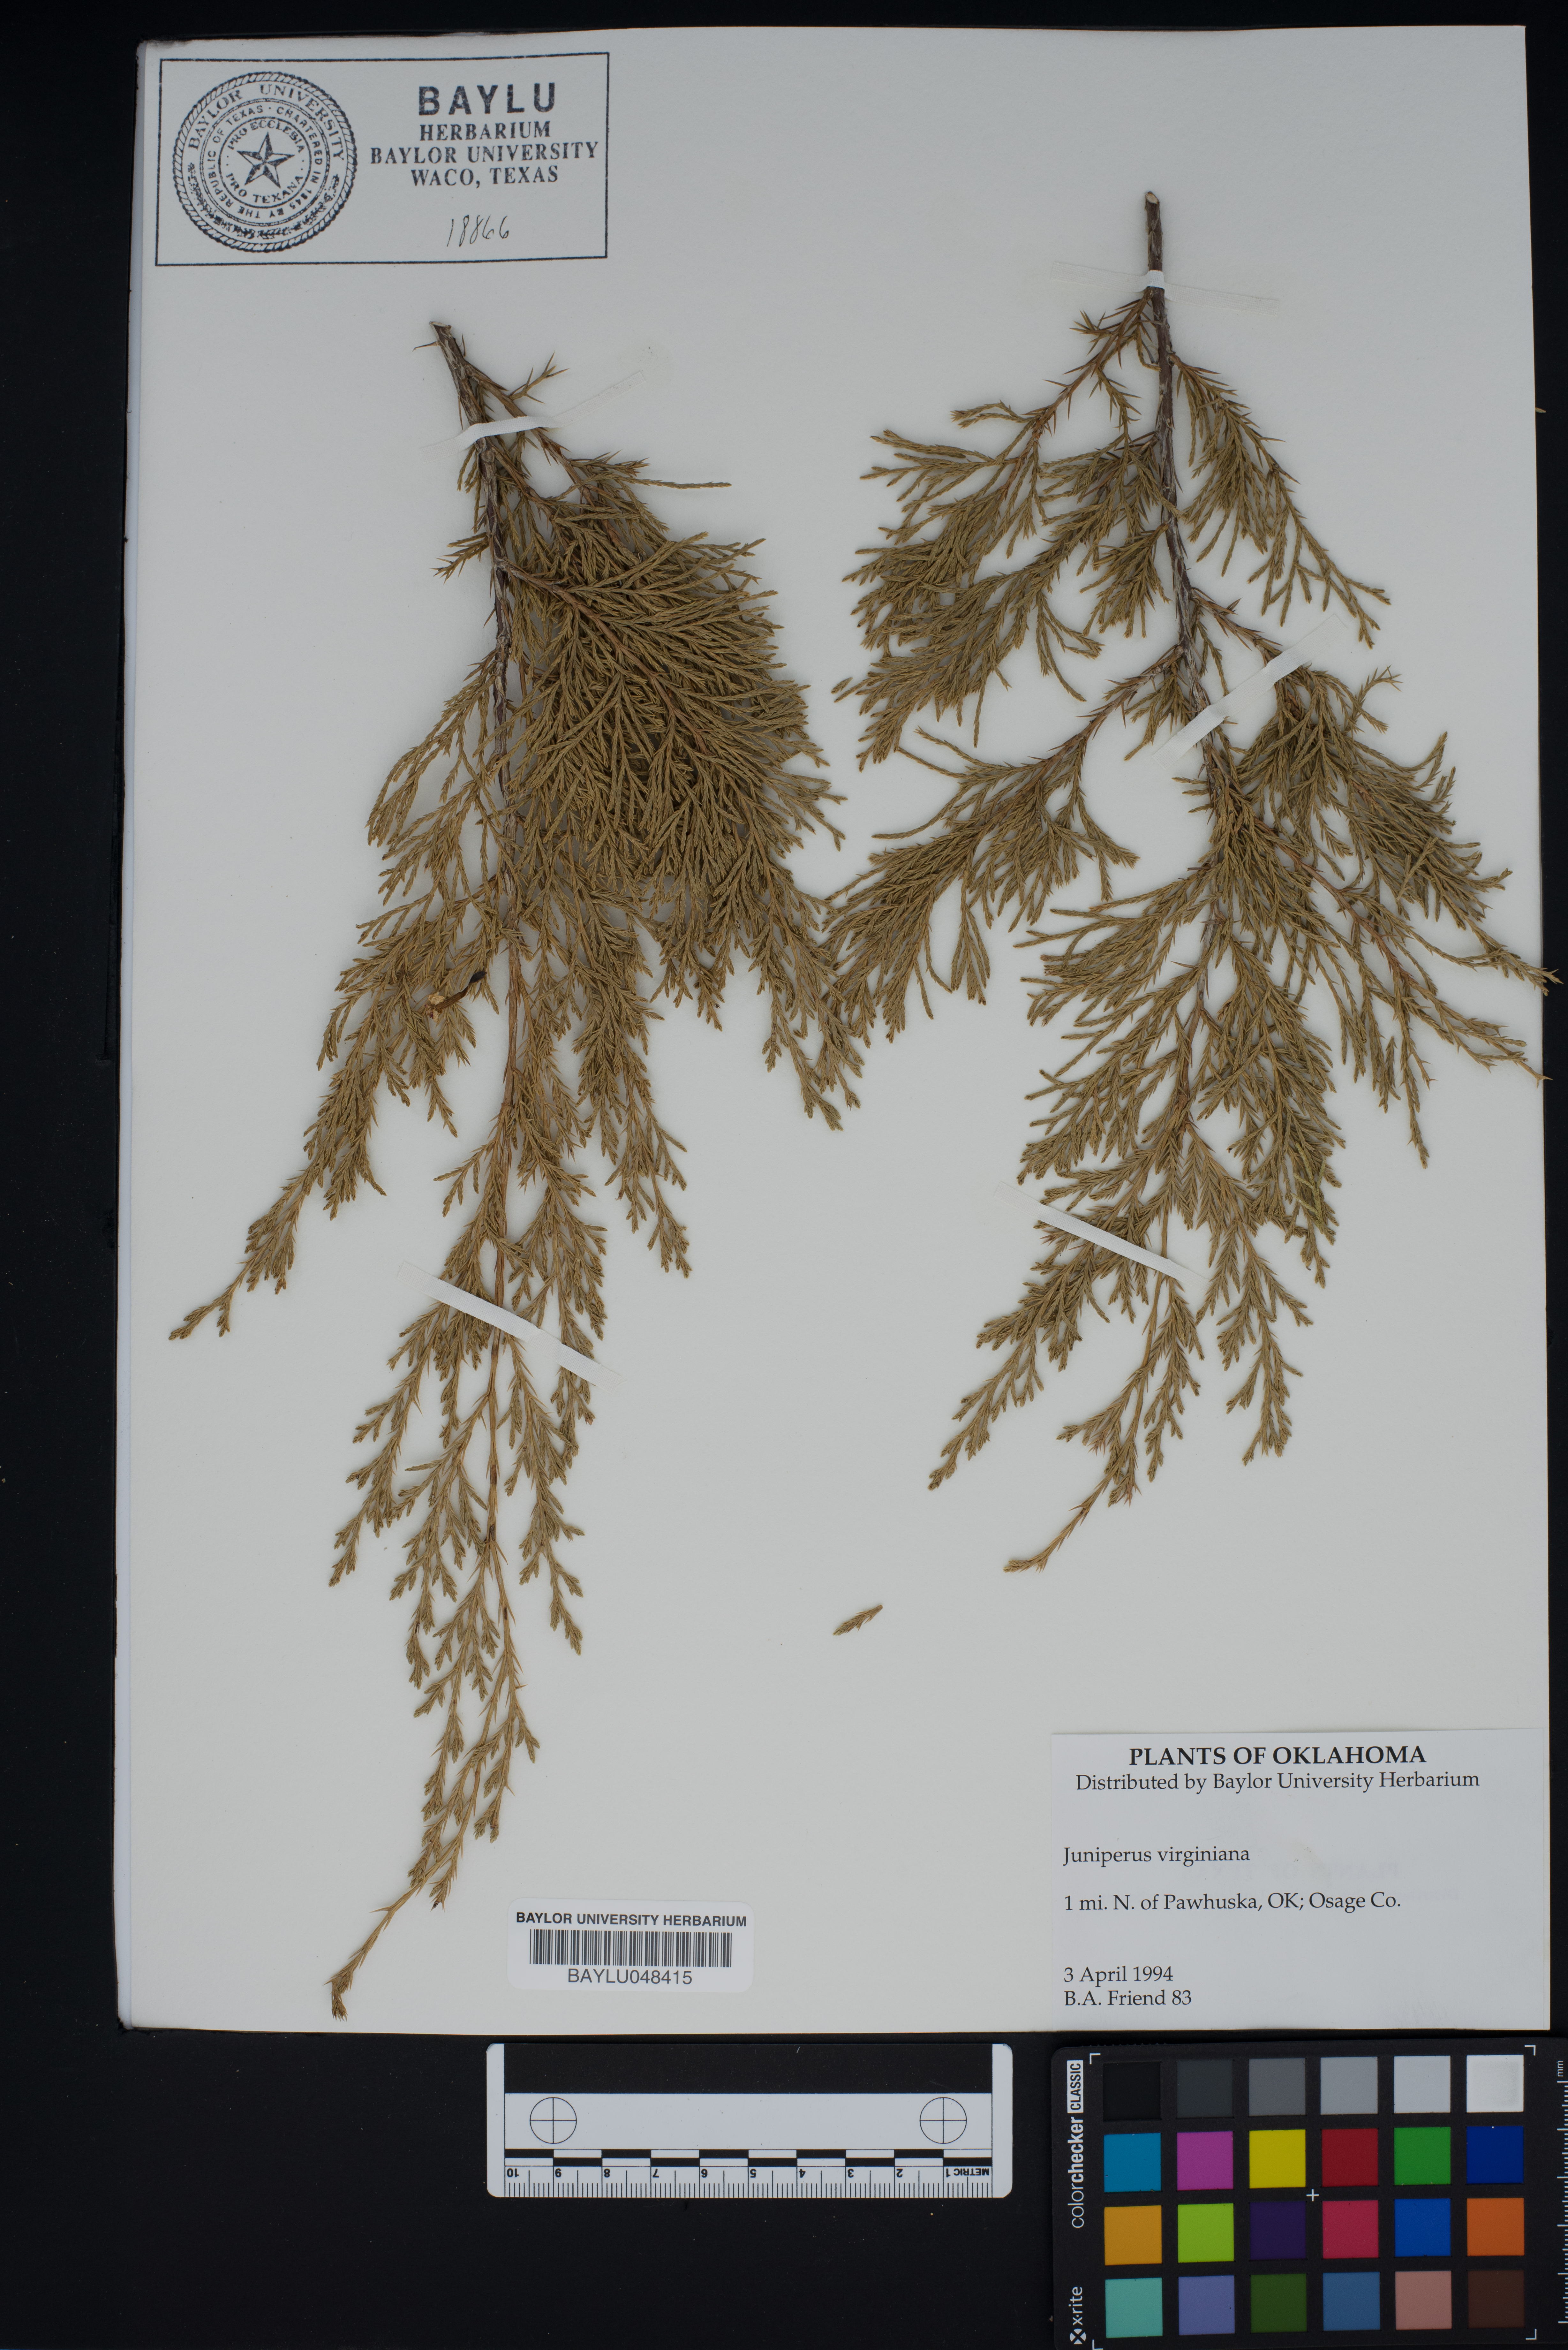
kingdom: Plantae
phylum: Tracheophyta
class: Pinopsida
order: Pinales
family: Cupressaceae
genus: Juniperus
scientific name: Juniperus virginiana
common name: Red juniper
